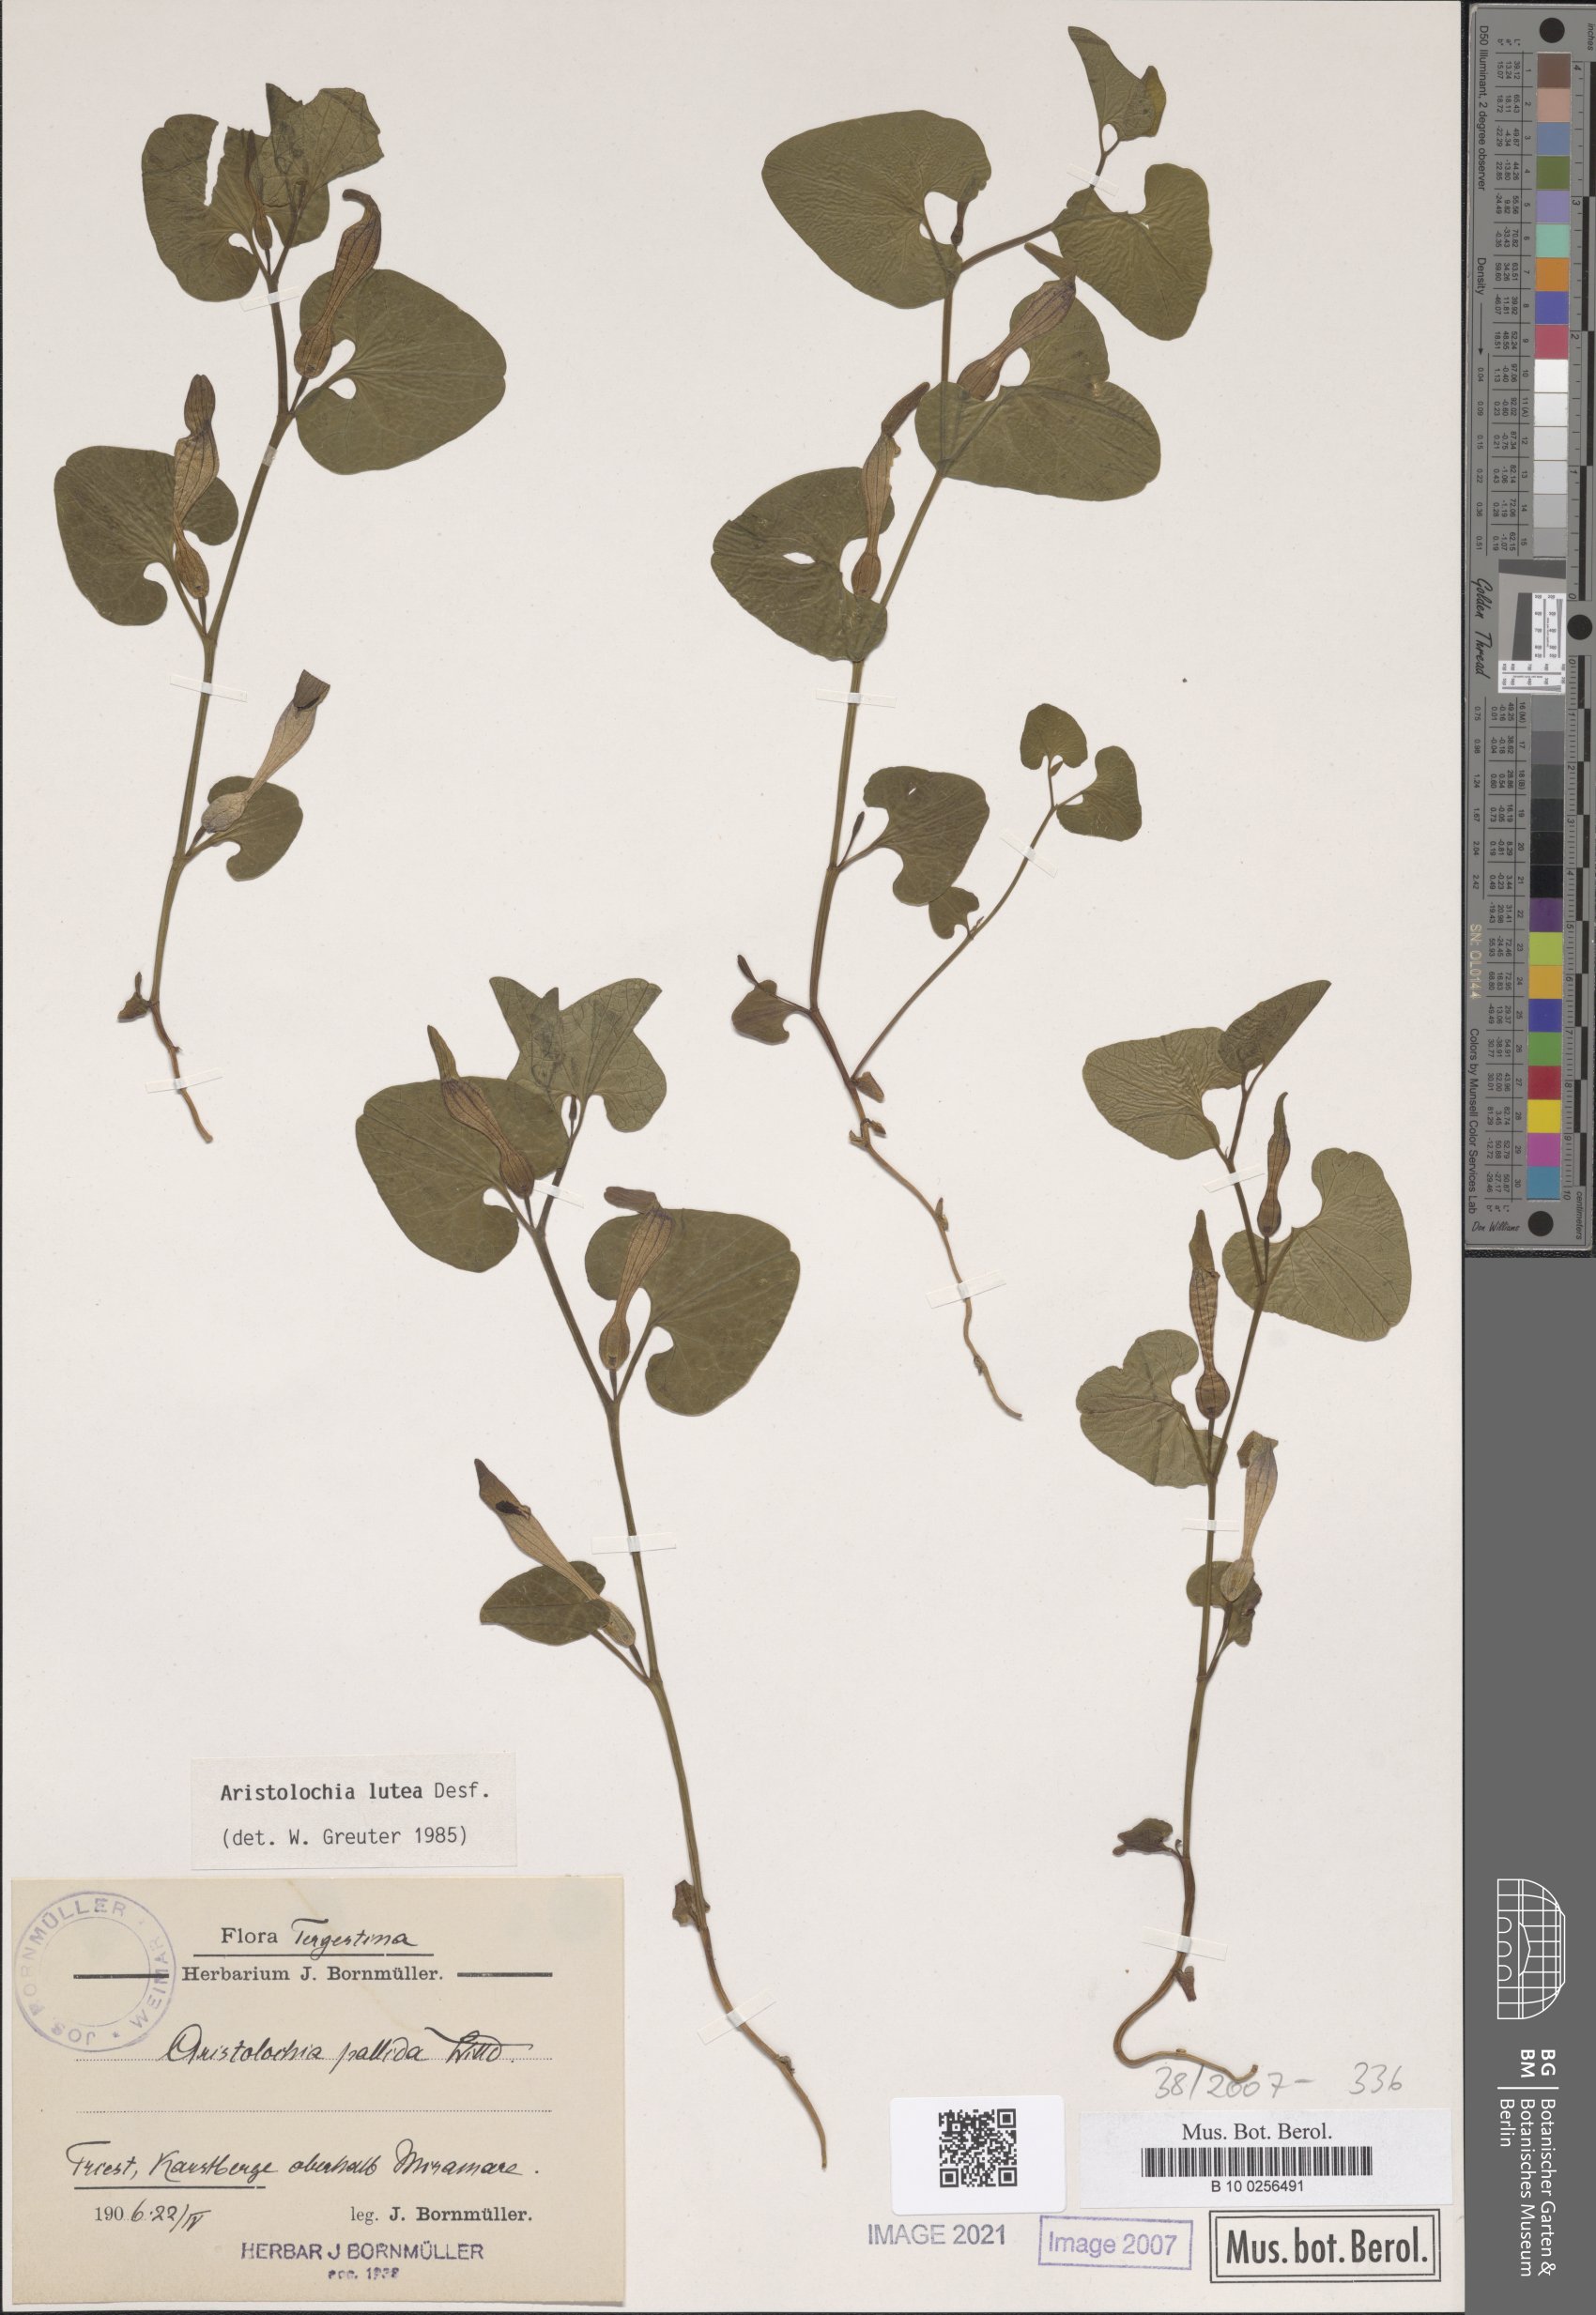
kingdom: Plantae
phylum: Tracheophyta
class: Magnoliopsida
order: Piperales
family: Aristolochiaceae
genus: Aristolochia
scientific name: Aristolochia lutea
